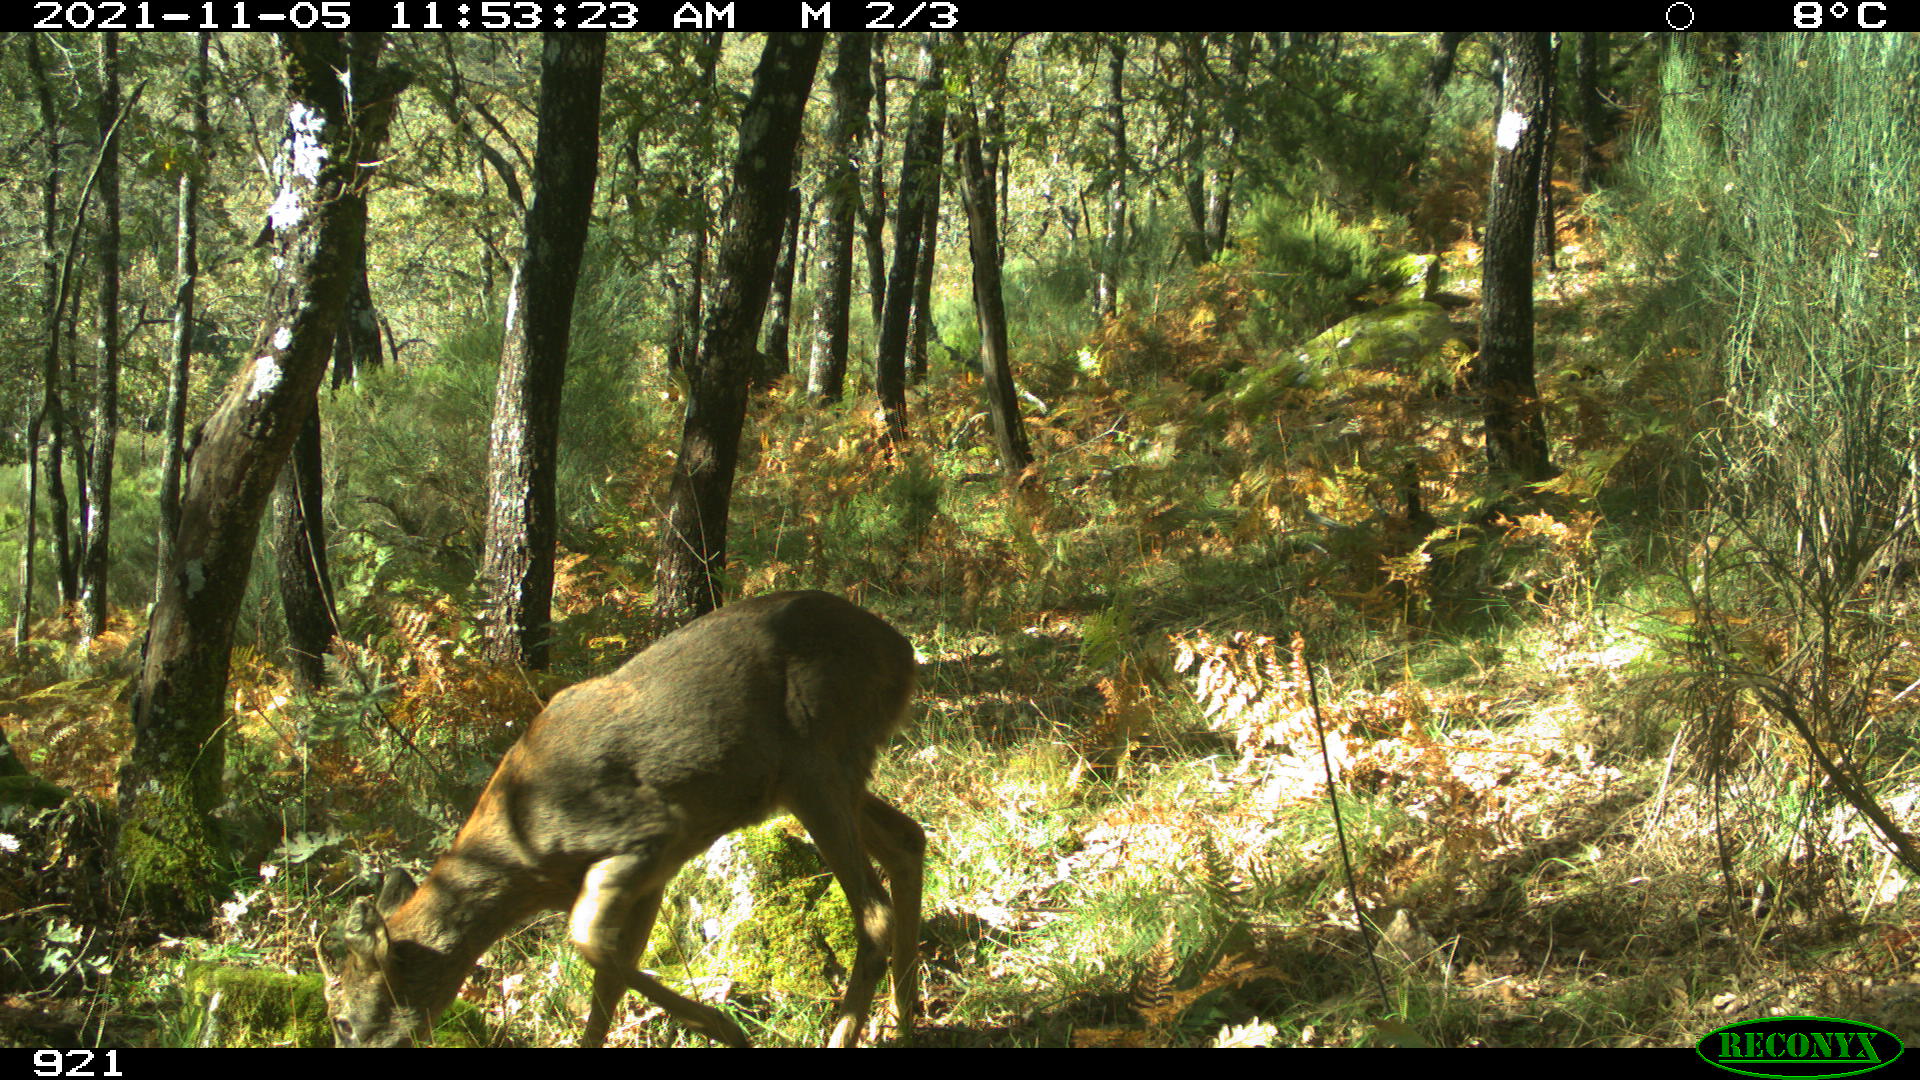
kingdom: Animalia
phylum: Chordata
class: Mammalia
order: Artiodactyla
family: Cervidae
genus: Capreolus
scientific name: Capreolus capreolus
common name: Western roe deer
